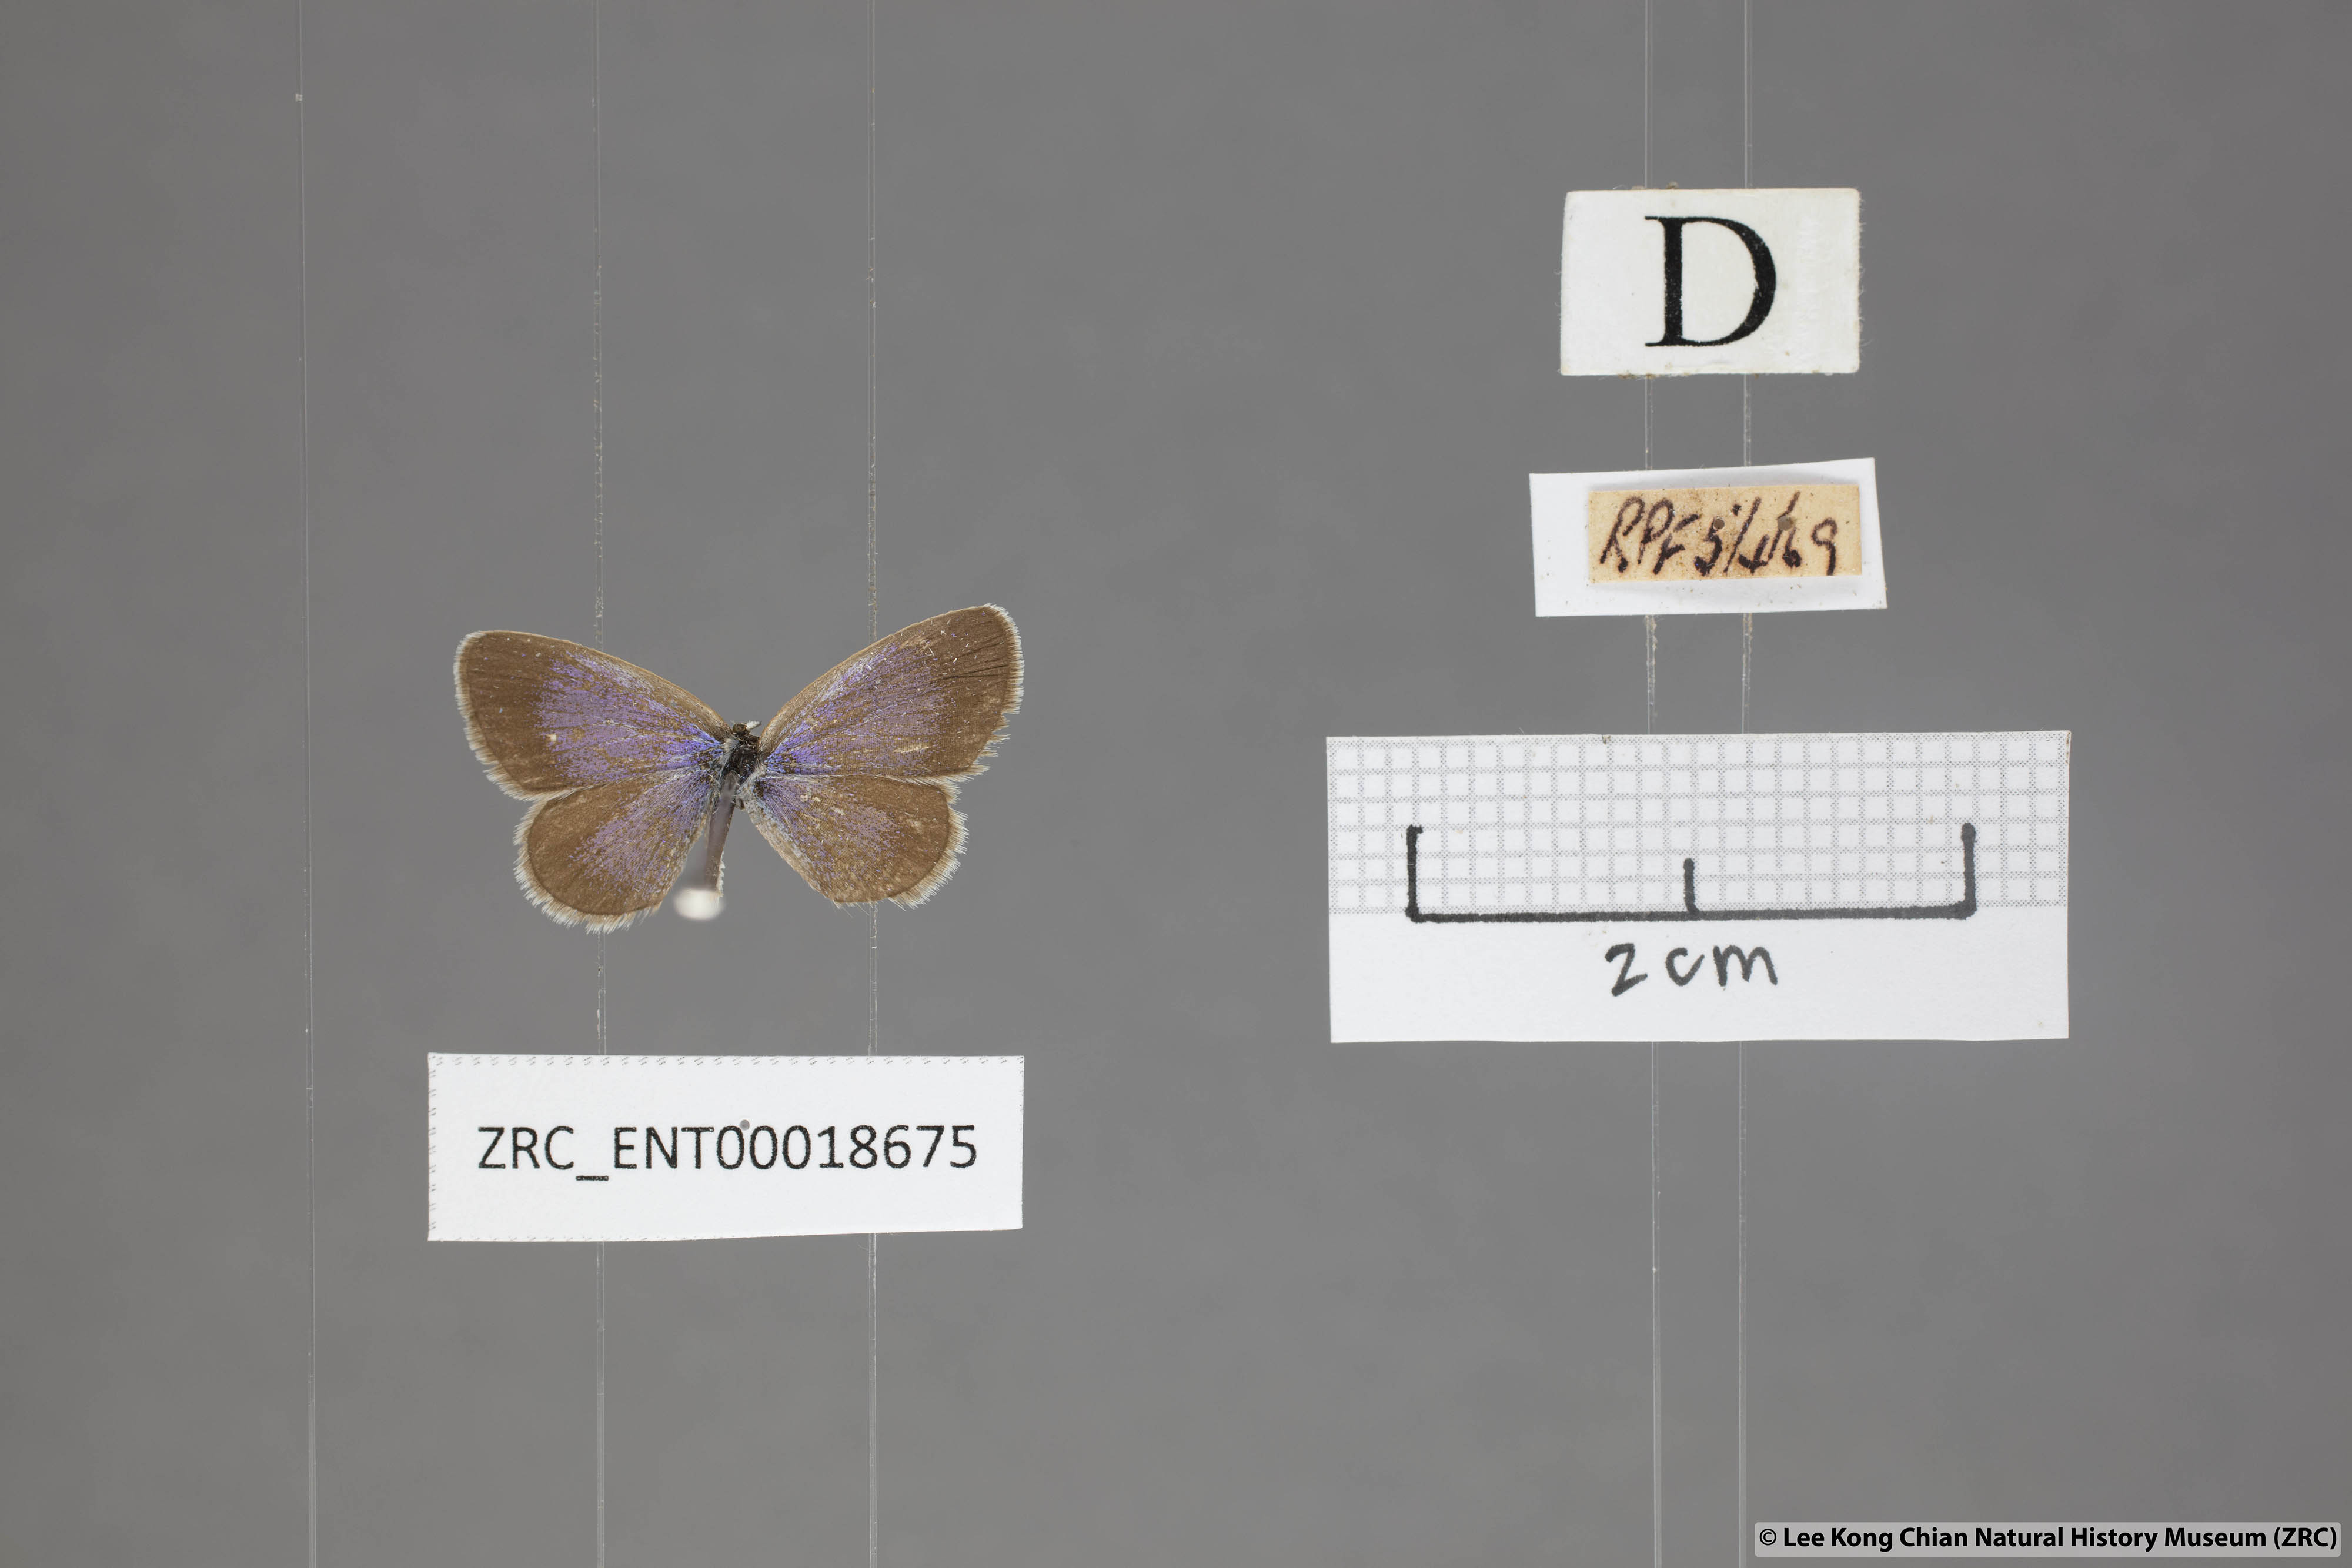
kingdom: Animalia
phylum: Arthropoda
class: Insecta
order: Lepidoptera
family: Lycaenidae
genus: Zizina
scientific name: Zizina otis
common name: Lesser grass blue
